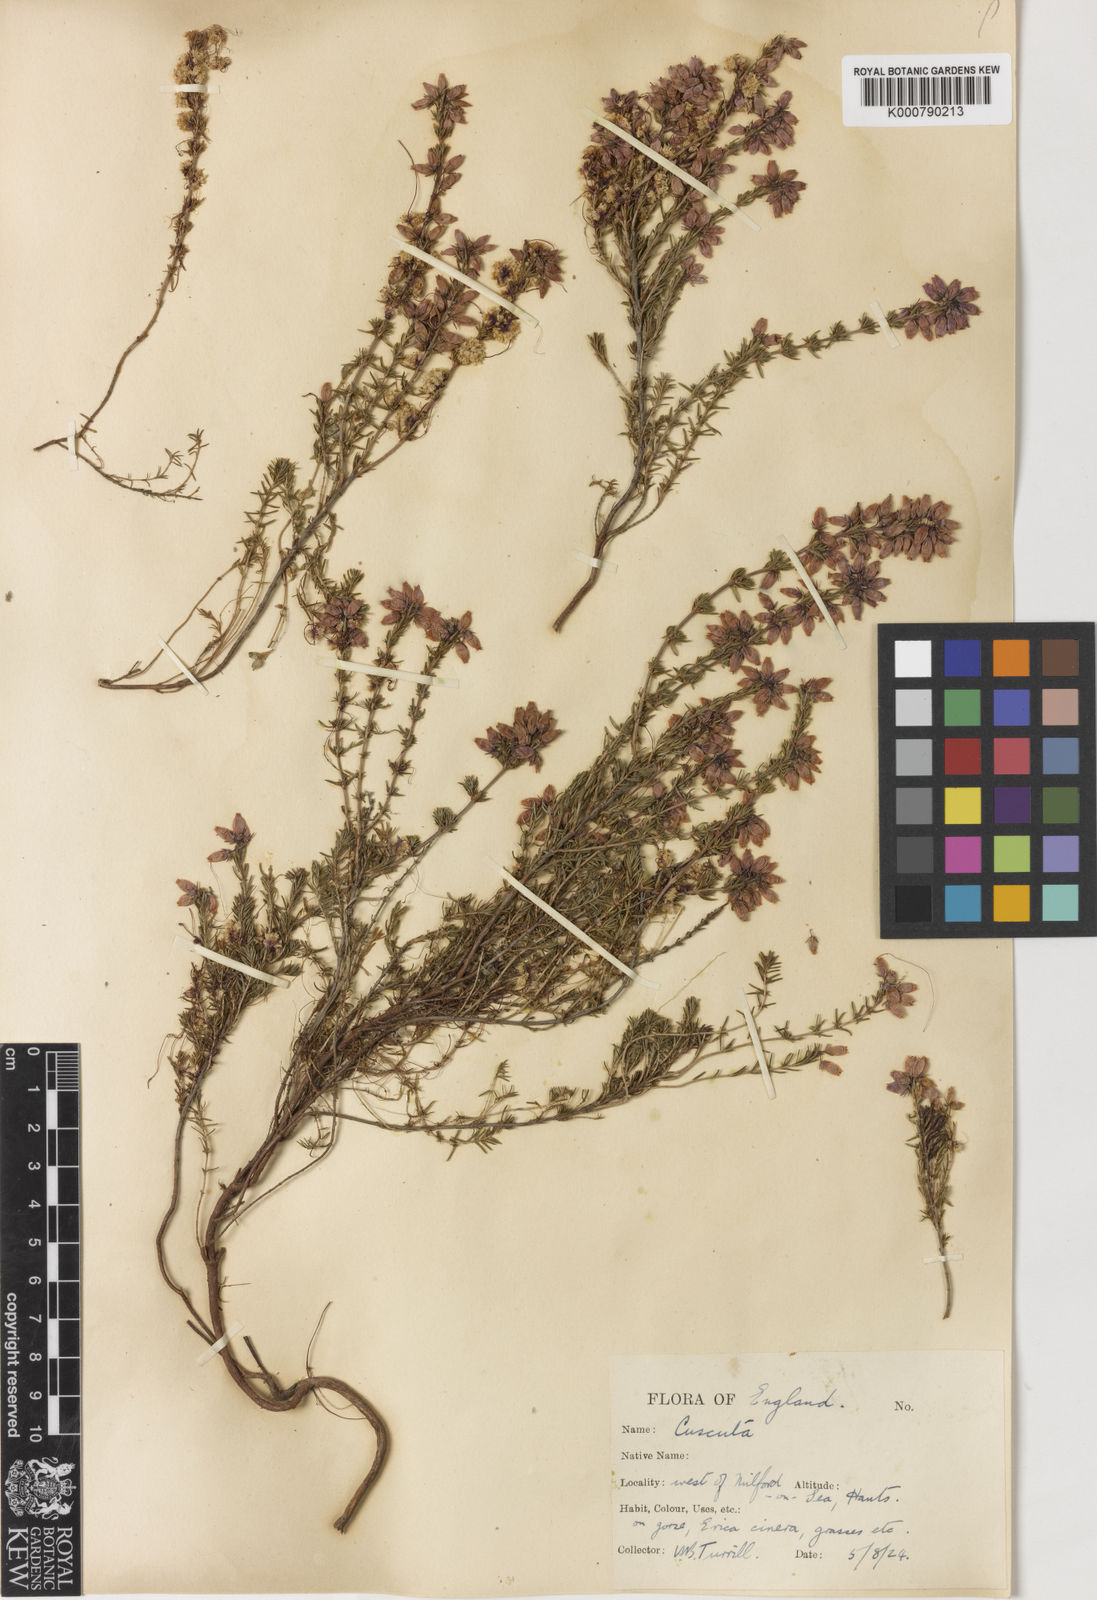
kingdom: Plantae
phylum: Tracheophyta
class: Magnoliopsida
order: Solanales
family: Convolvulaceae
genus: Cuscuta
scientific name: Cuscuta epithymum
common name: Clover dodder
